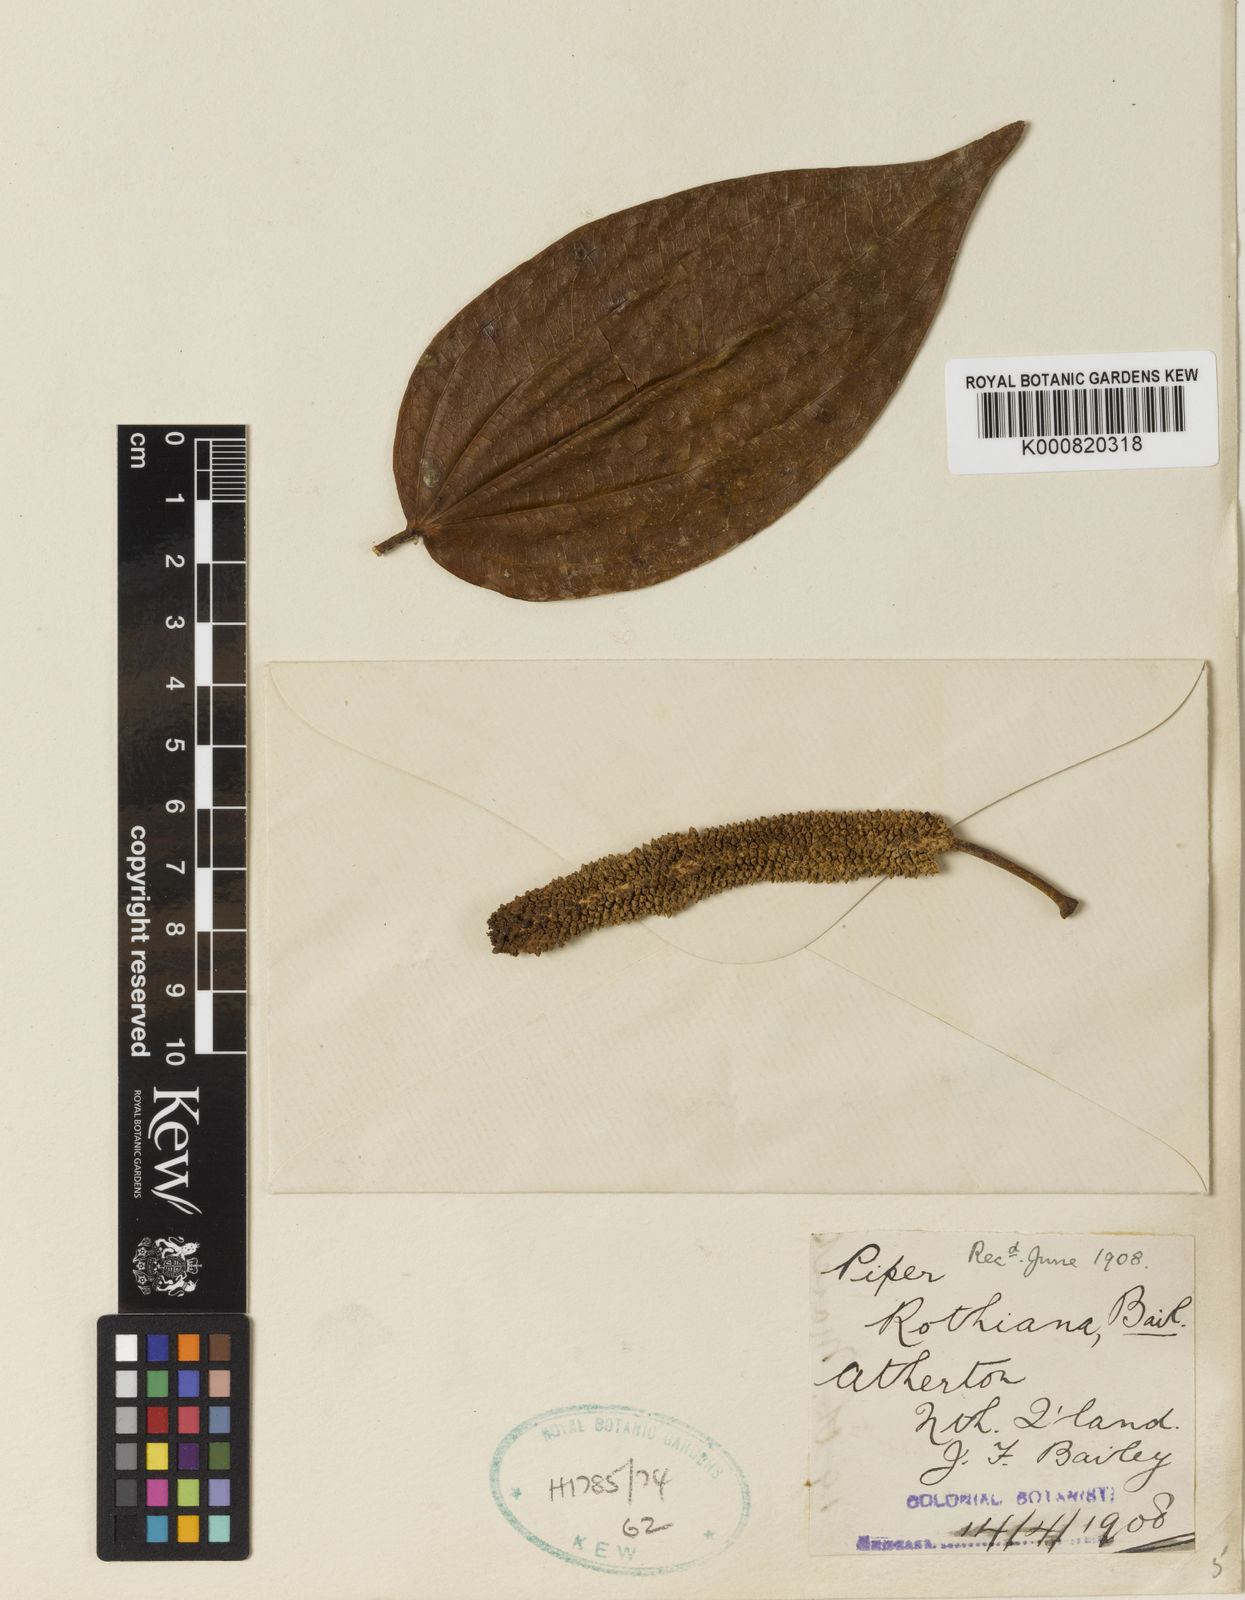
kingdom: Plantae
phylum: Tracheophyta
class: Magnoliopsida
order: Piperales
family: Piperaceae
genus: Piper
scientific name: Piper macropiper
